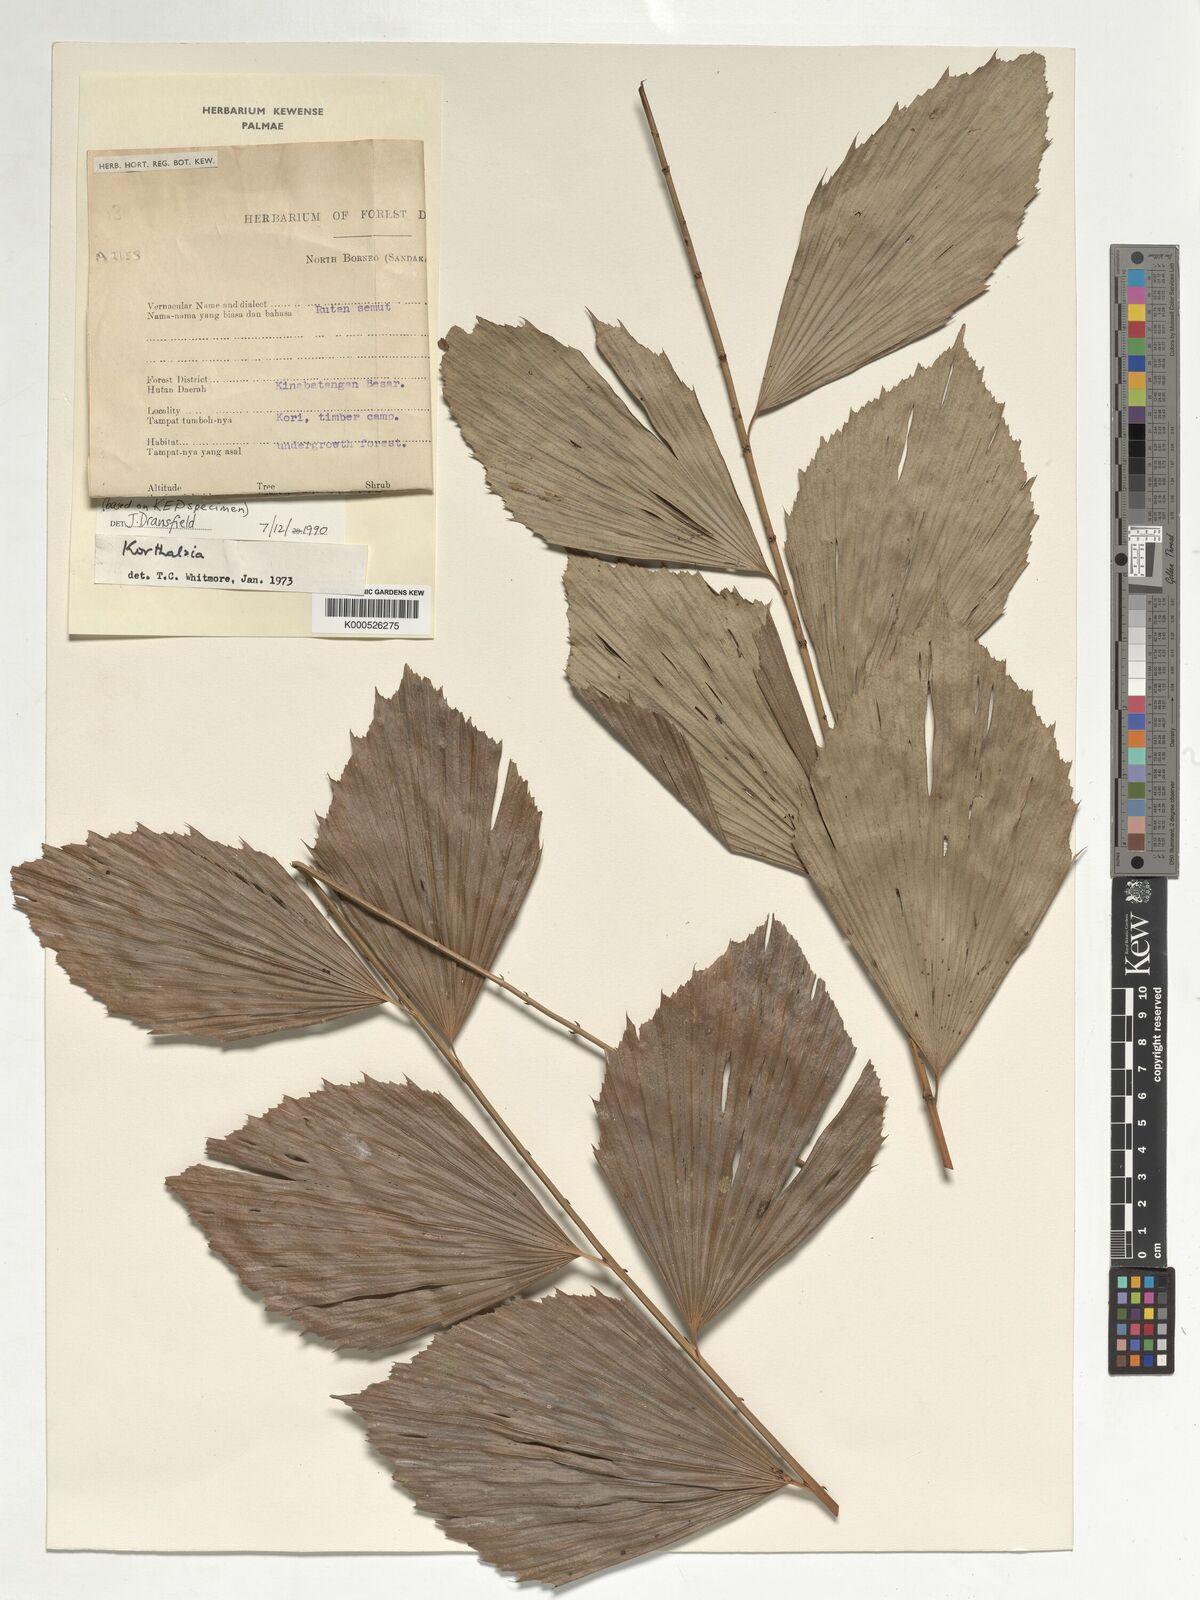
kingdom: Plantae
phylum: Tracheophyta
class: Liliopsida
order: Arecales
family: Arecaceae
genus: Korthalsia
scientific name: Korthalsia robusta
